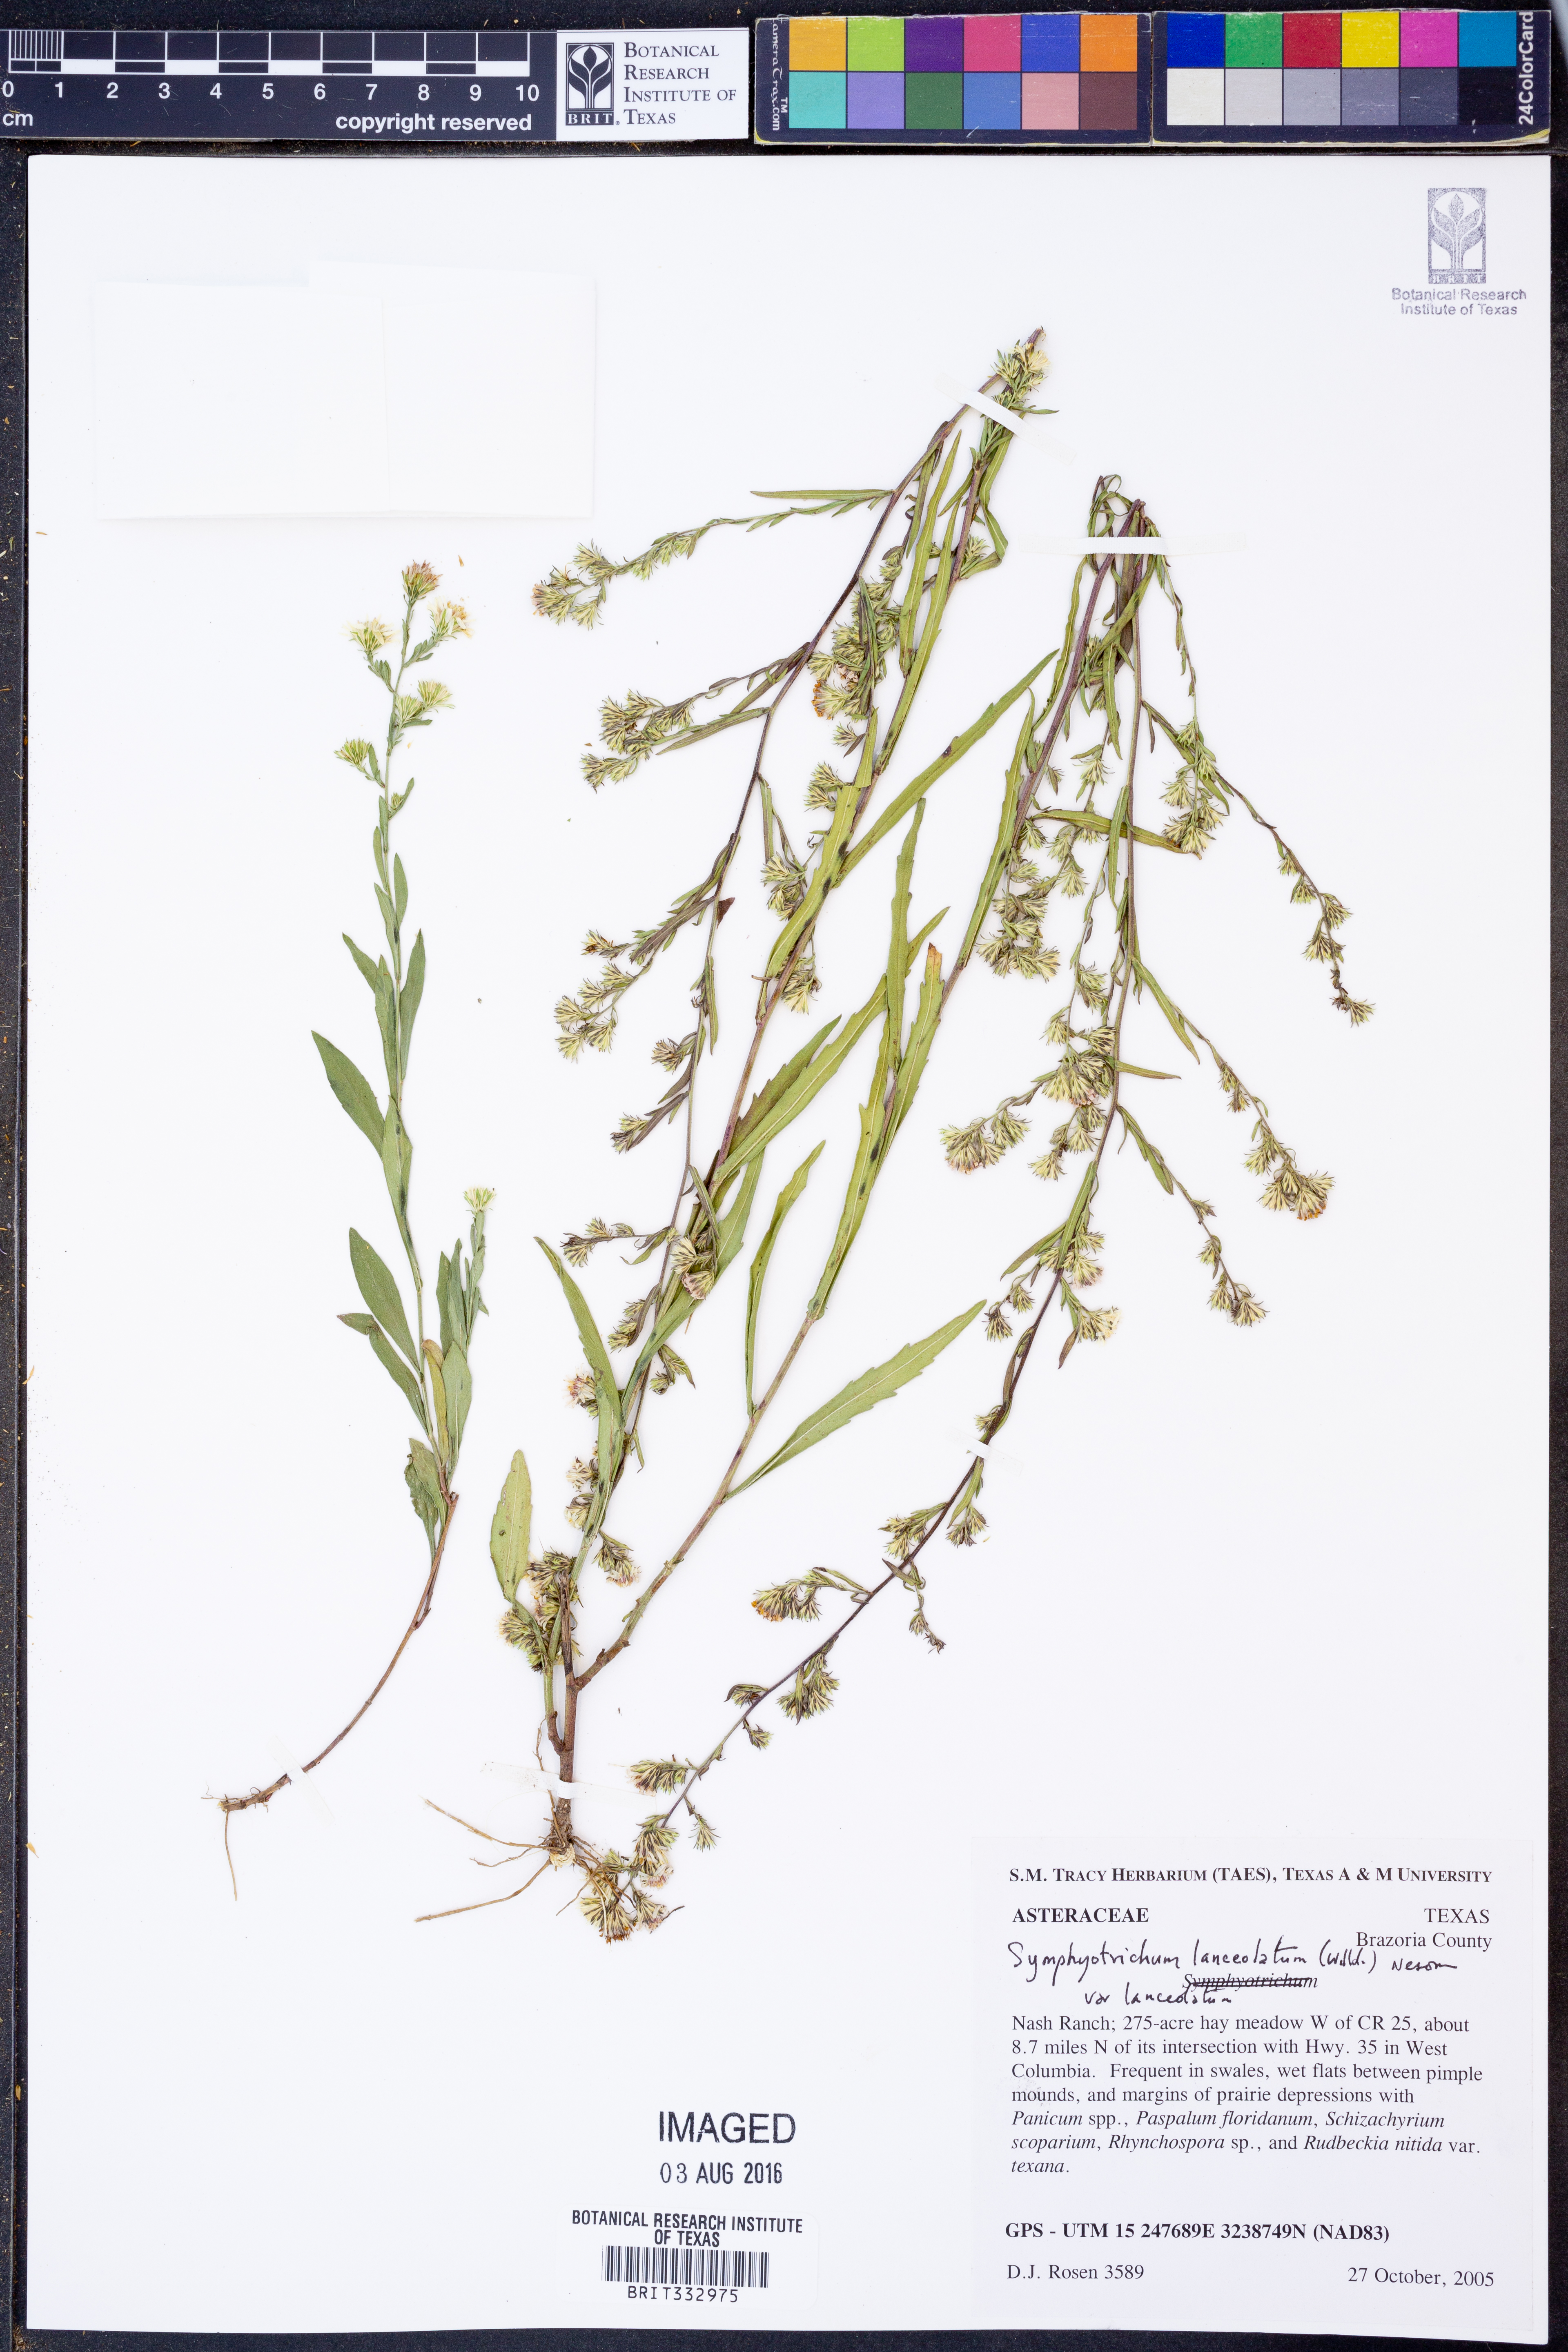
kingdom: Plantae
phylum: Tracheophyta
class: Magnoliopsida
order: Asterales
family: Asteraceae
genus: Symphyotrichum
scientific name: Symphyotrichum lanceolatum
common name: Panicled aster
